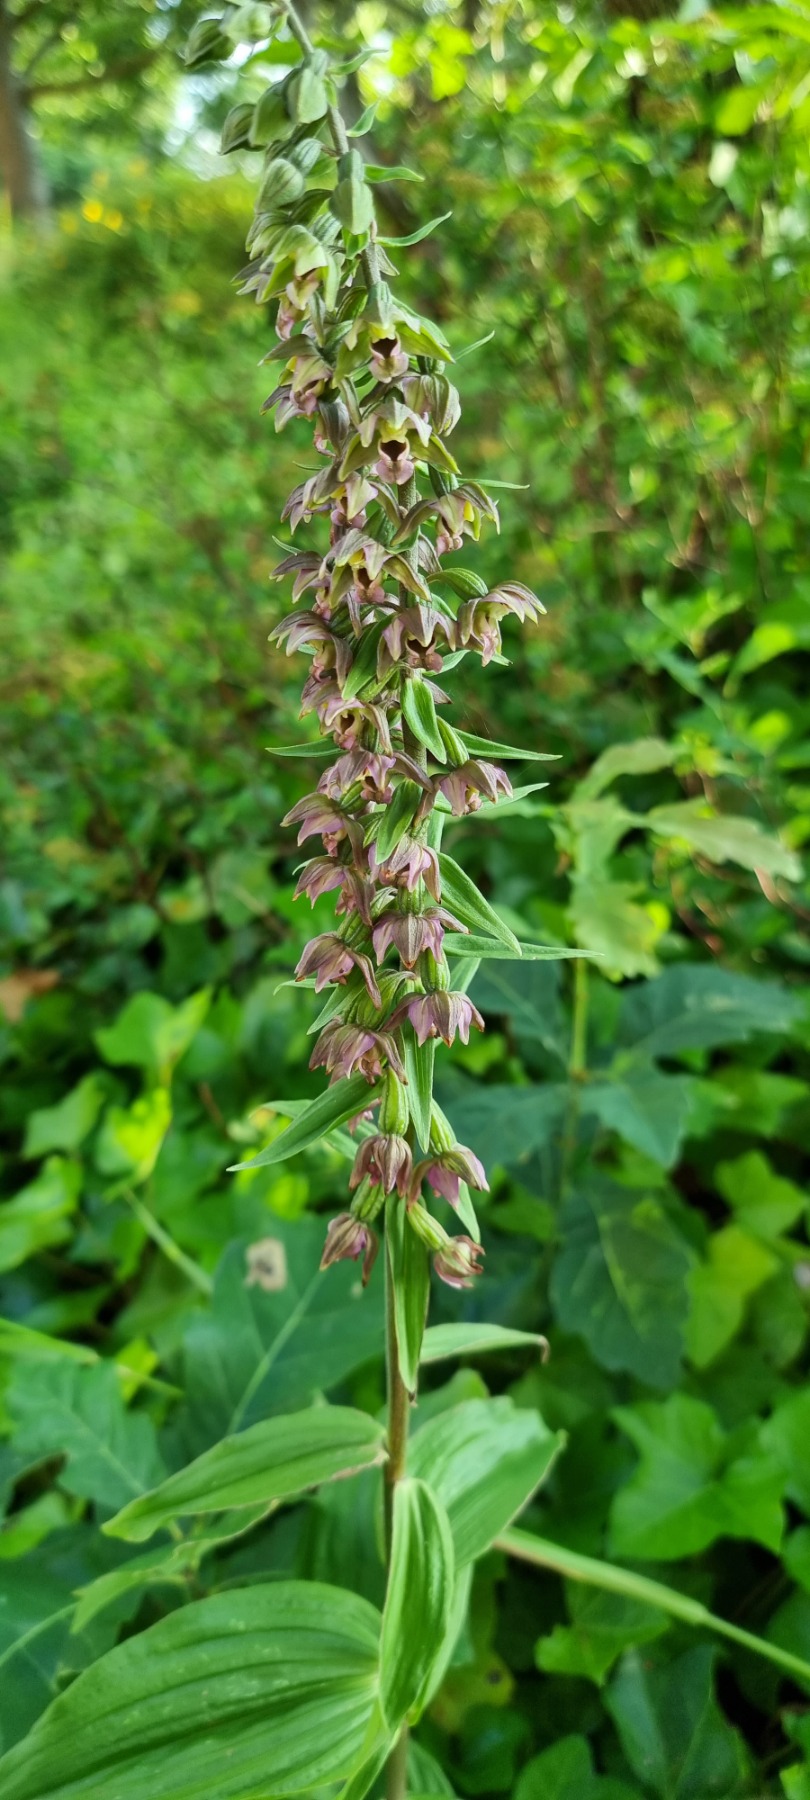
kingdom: Plantae
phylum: Tracheophyta
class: Liliopsida
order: Asparagales
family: Orchidaceae
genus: Epipactis
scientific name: Epipactis helleborine
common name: Skov-hullæbe
